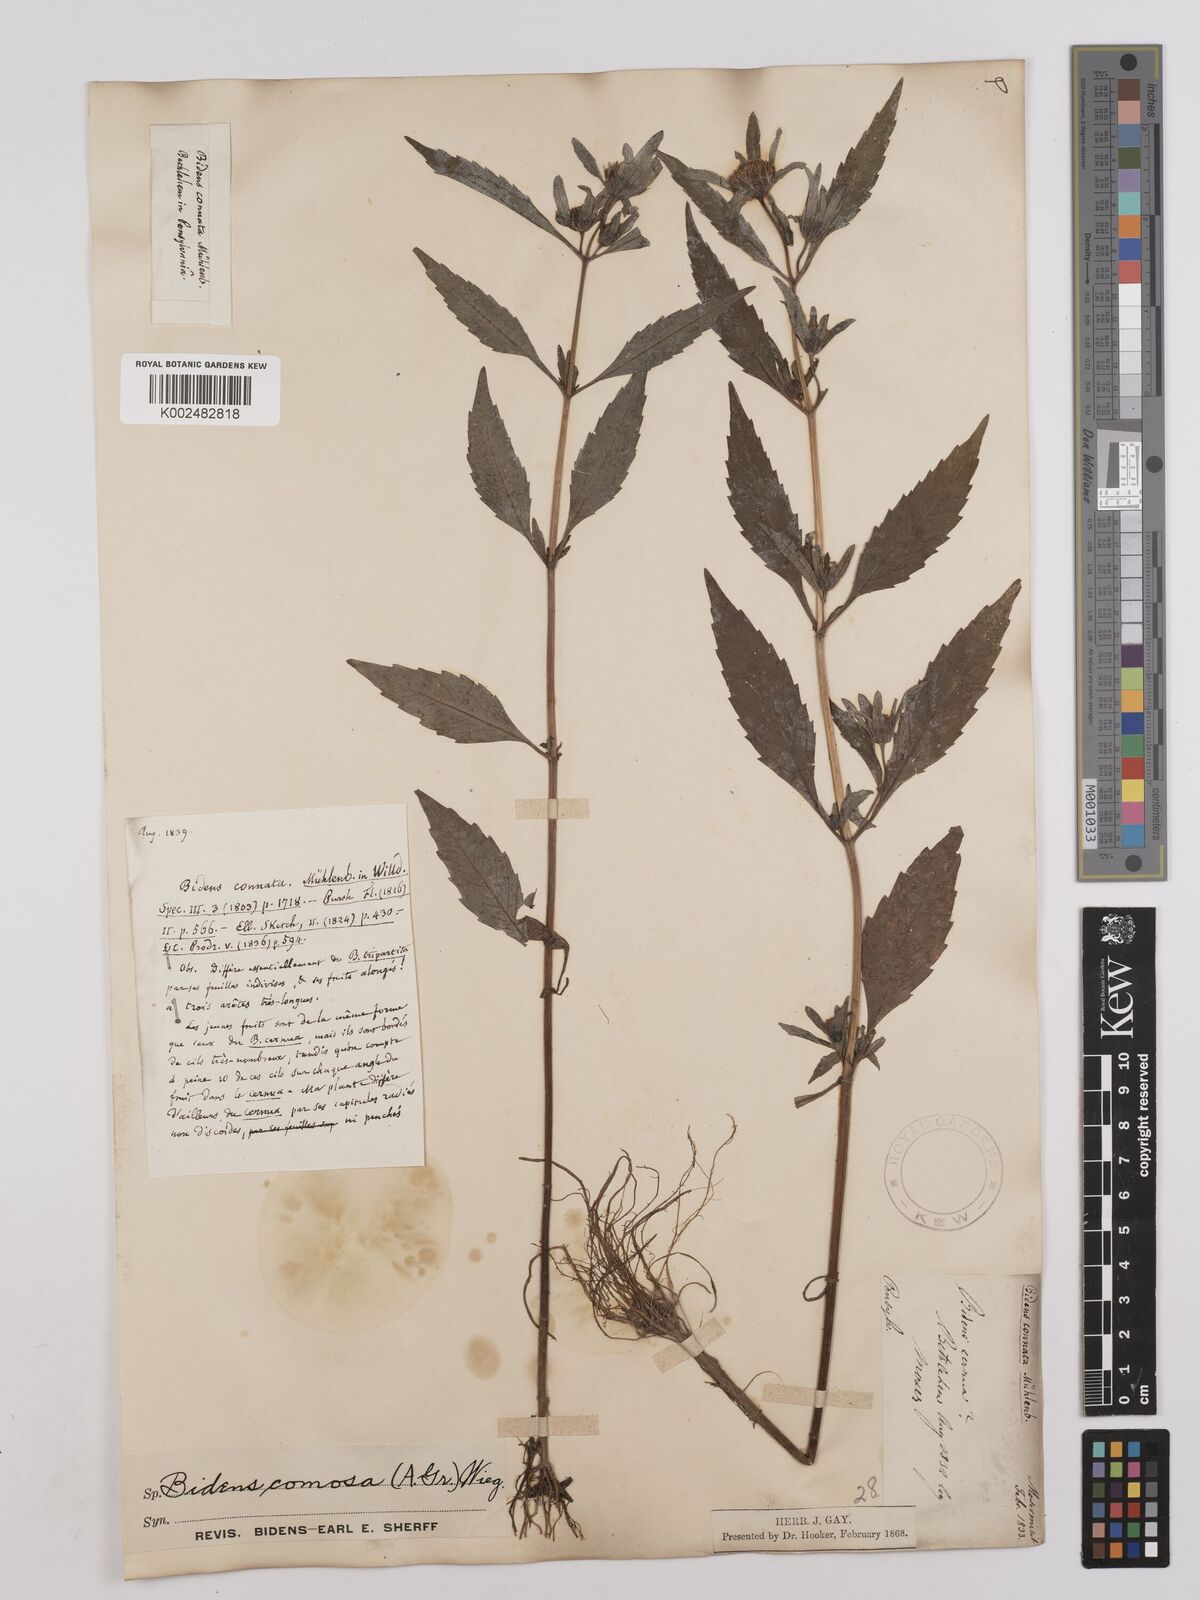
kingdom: Plantae
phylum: Tracheophyta
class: Magnoliopsida
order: Asterales
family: Asteraceae
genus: Bidens
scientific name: Bidens tripartita
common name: Trifid bur-marigold
